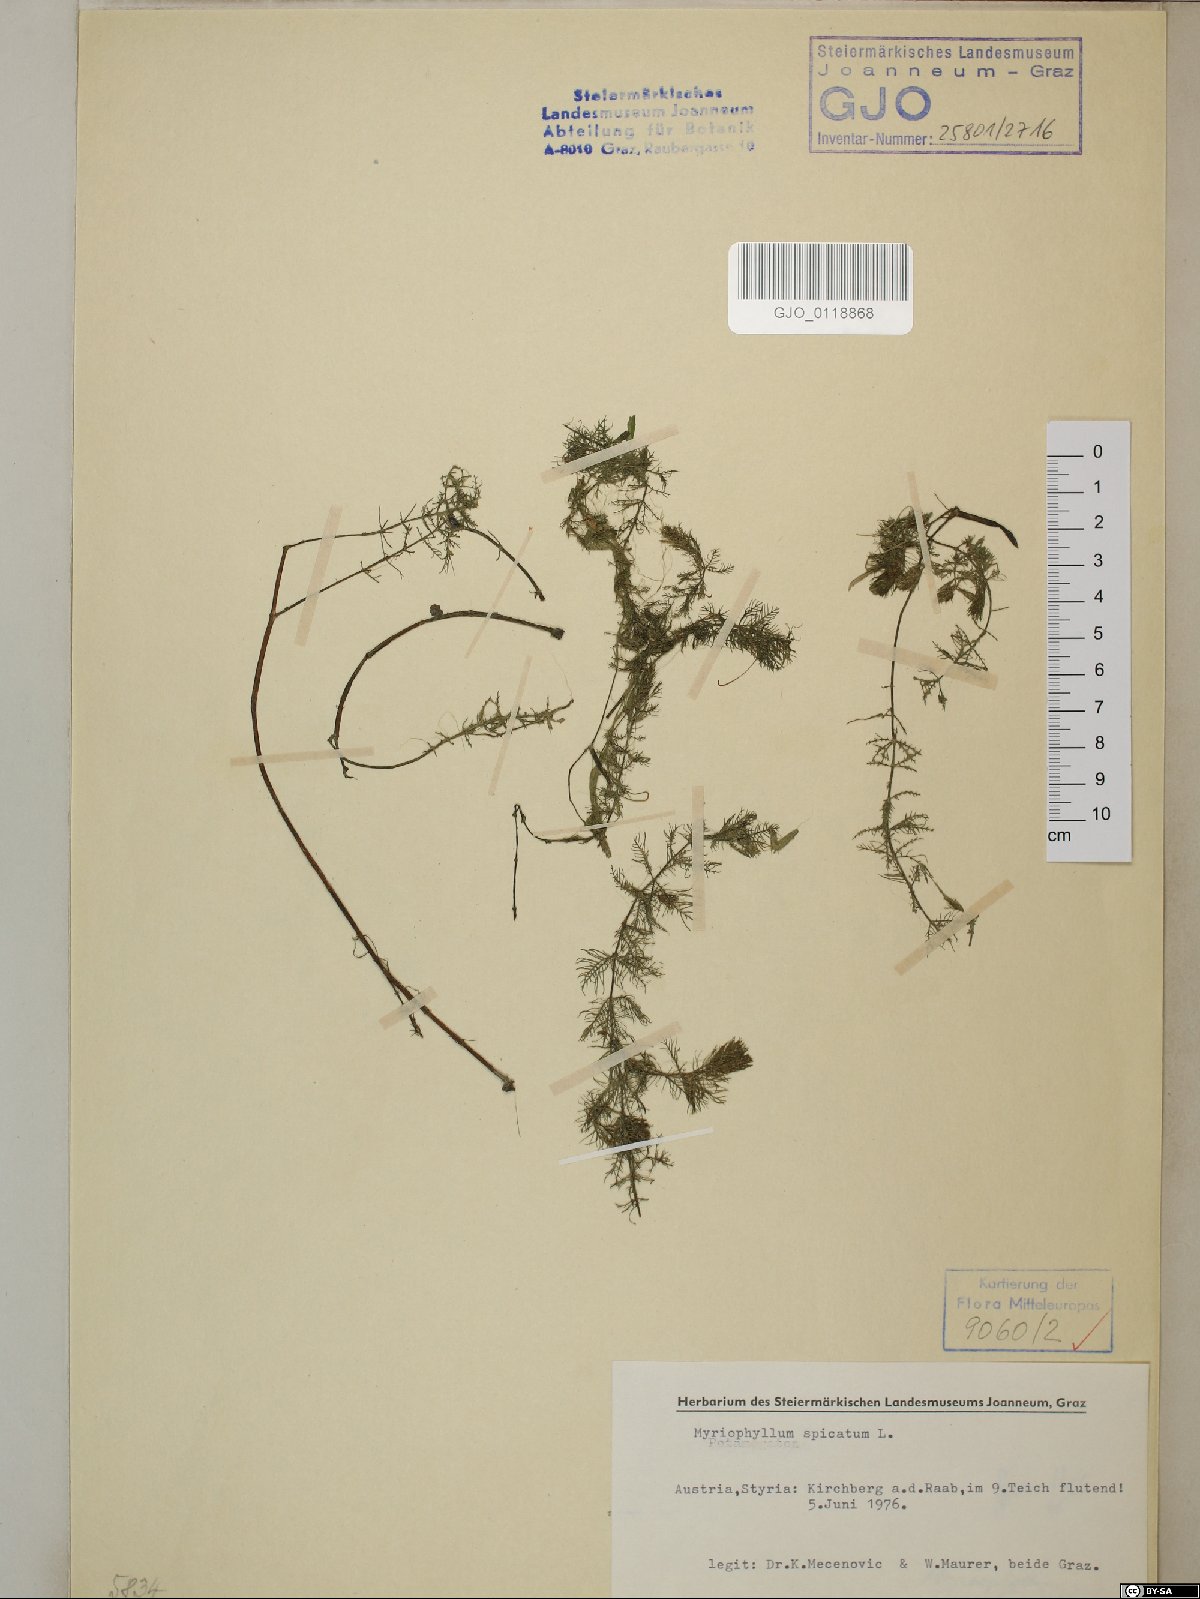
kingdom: Plantae
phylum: Tracheophyta
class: Magnoliopsida
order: Saxifragales
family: Haloragaceae
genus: Myriophyllum
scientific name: Myriophyllum spicatum
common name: Spiked water-milfoil
